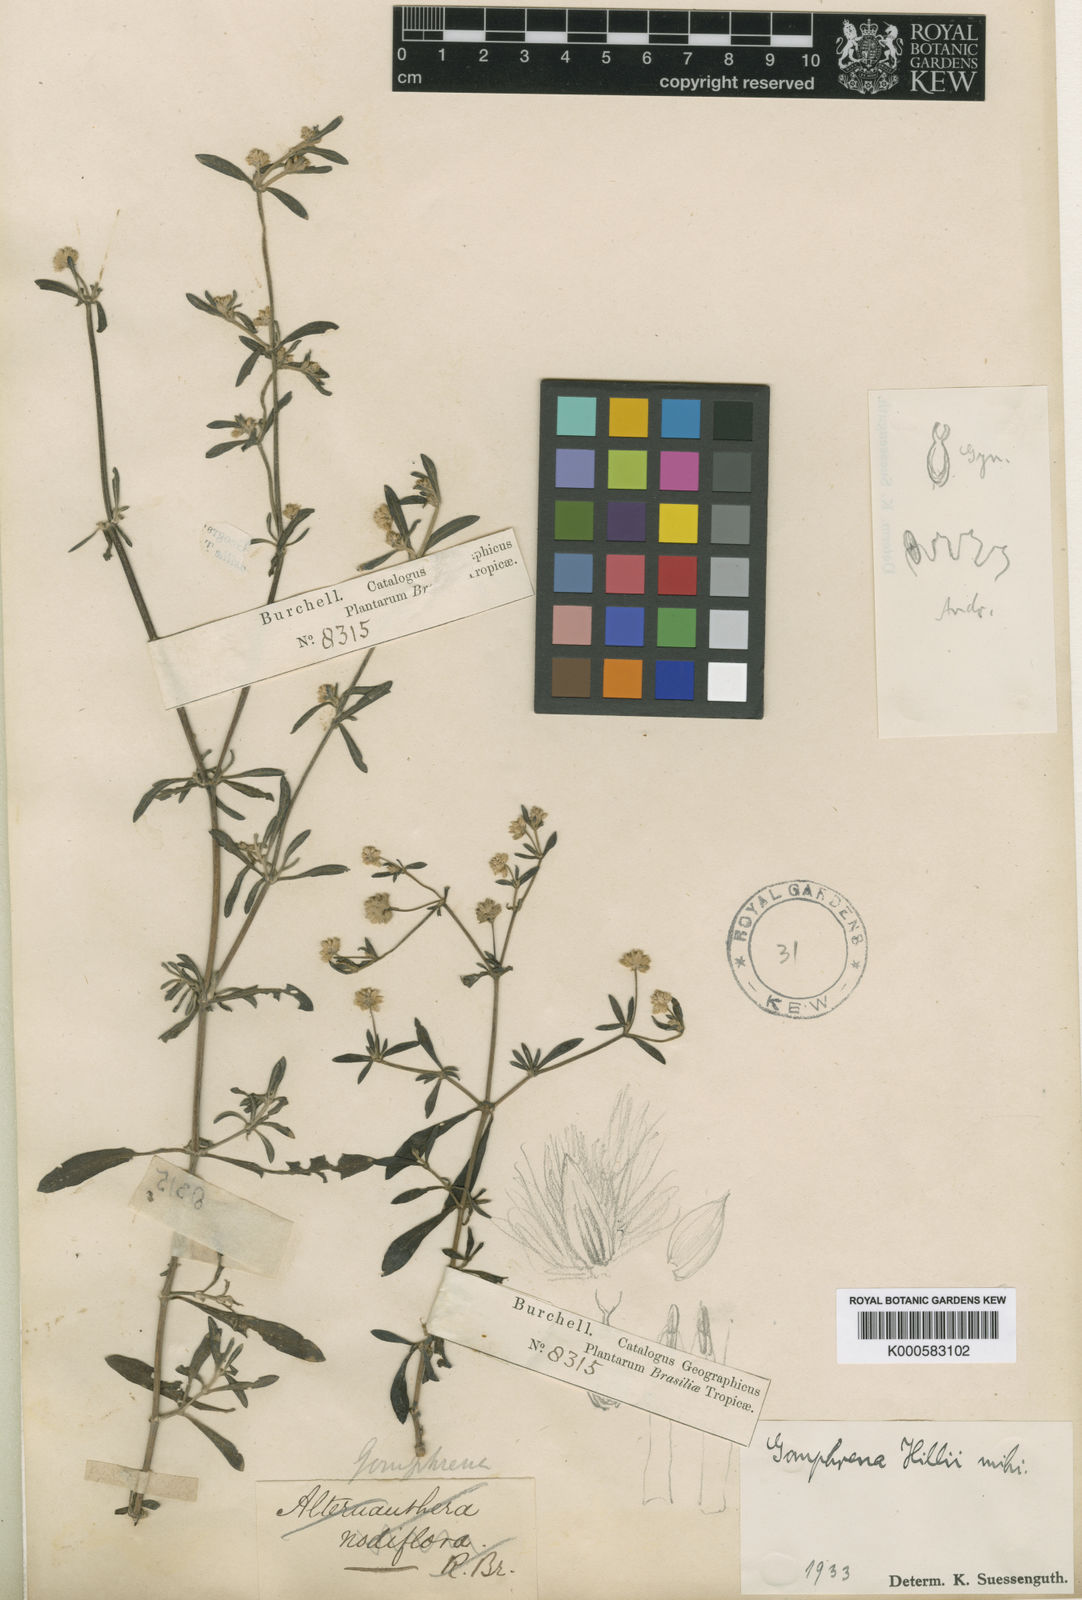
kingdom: Plantae
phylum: Tracheophyta
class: Magnoliopsida
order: Caryophyllales
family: Amaranthaceae
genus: Gomphrena
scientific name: Gomphrena hillii
